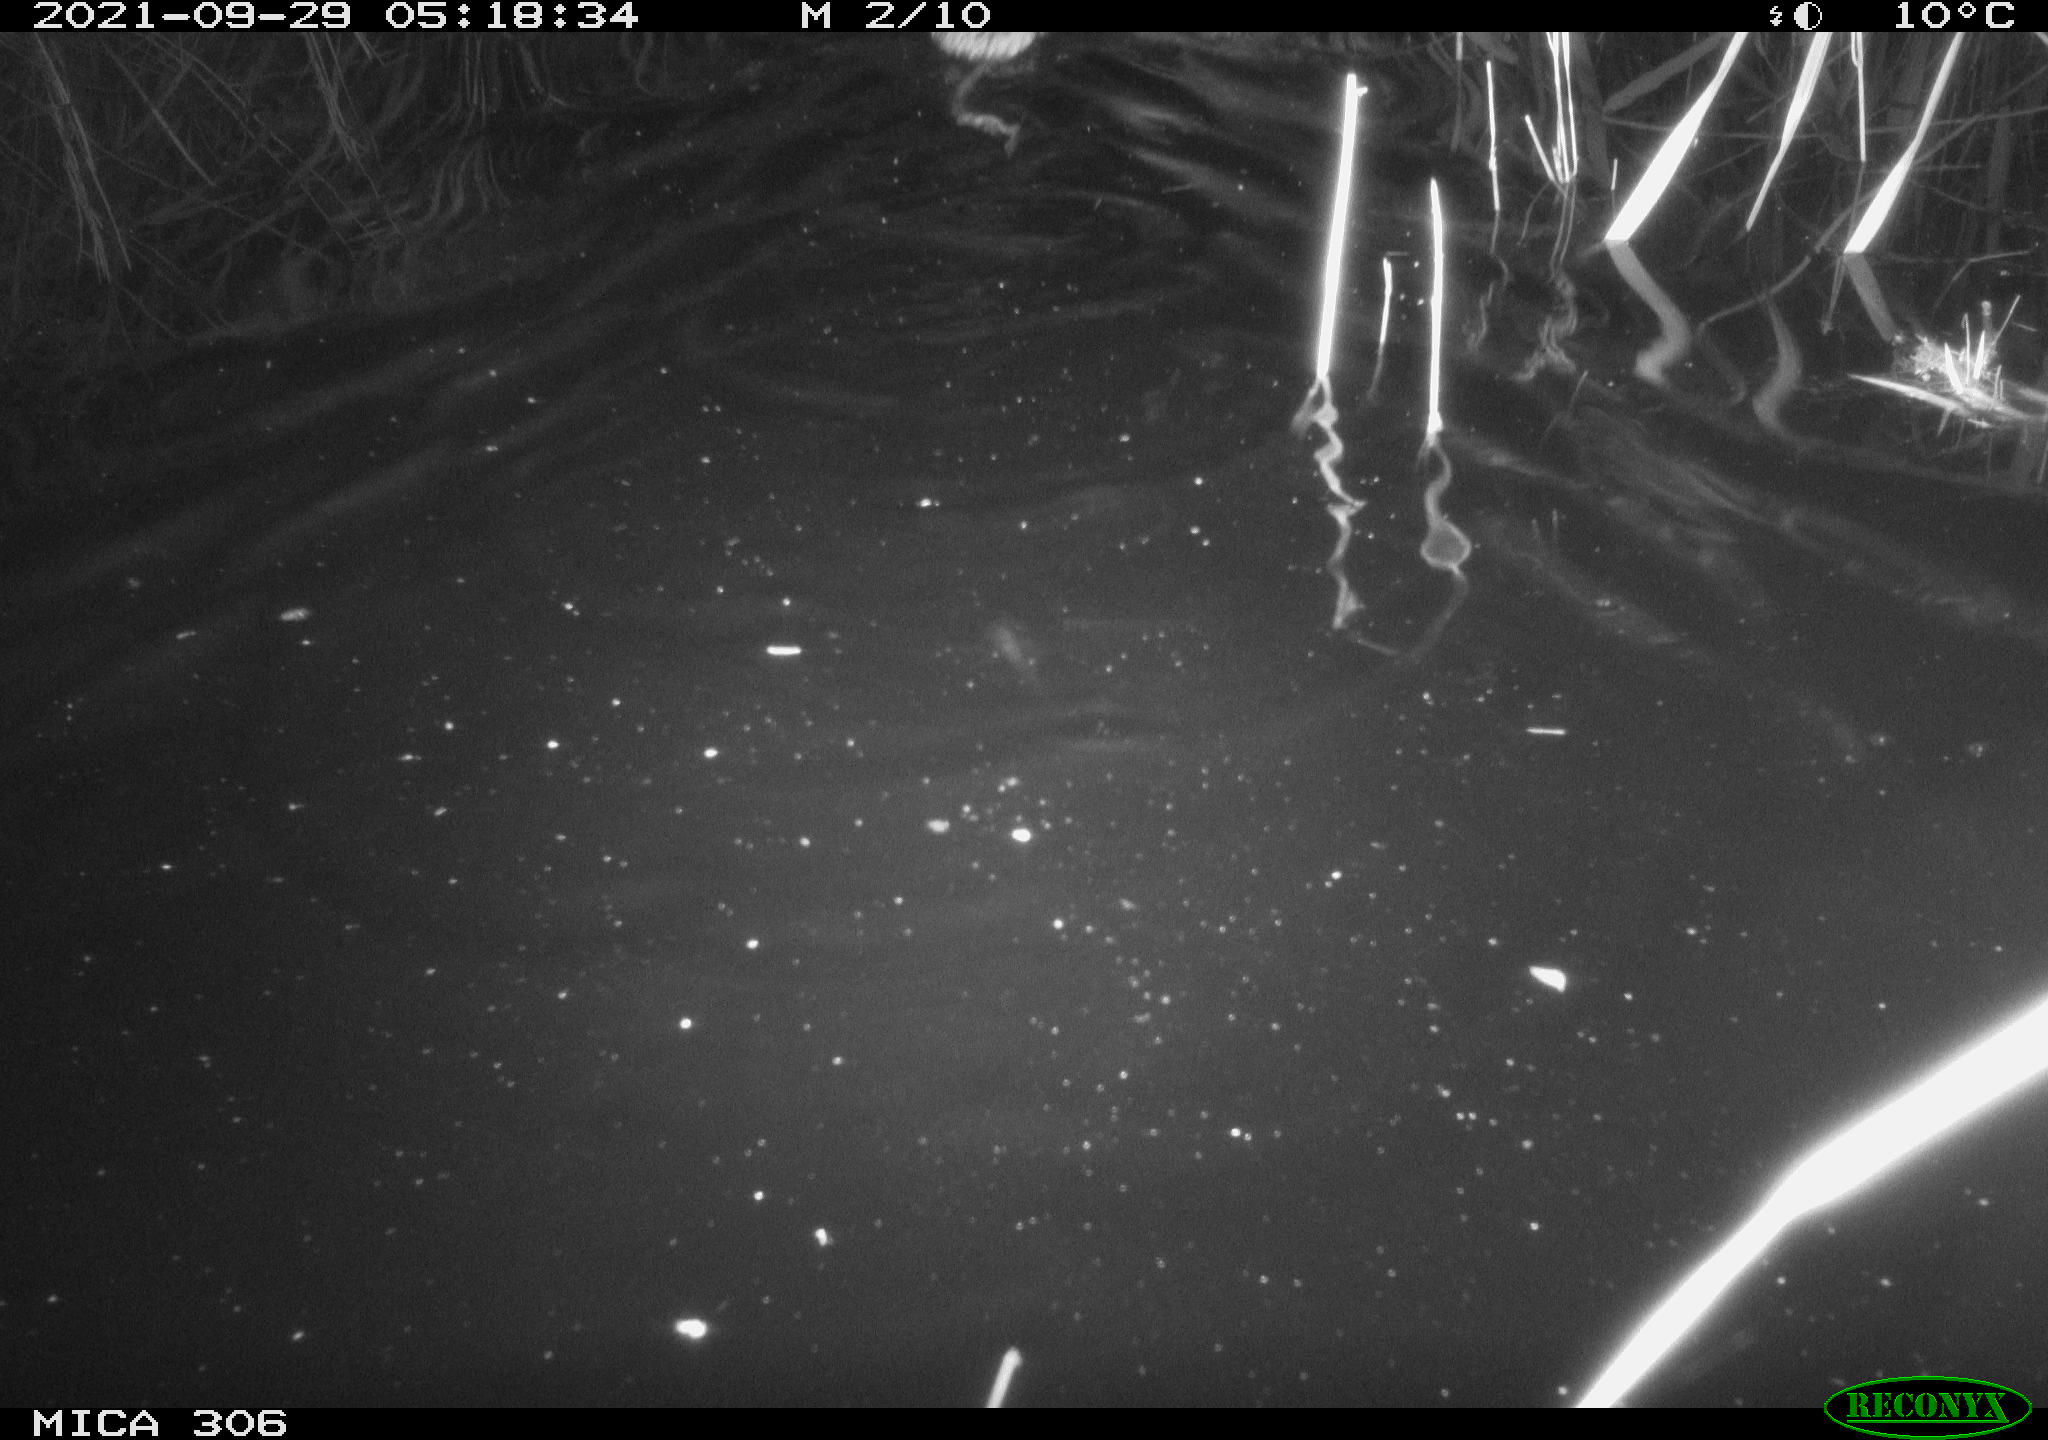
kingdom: Animalia
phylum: Chordata
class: Mammalia
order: Rodentia
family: Cricetidae
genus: Ondatra
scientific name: Ondatra zibethicus
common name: Muskrat
